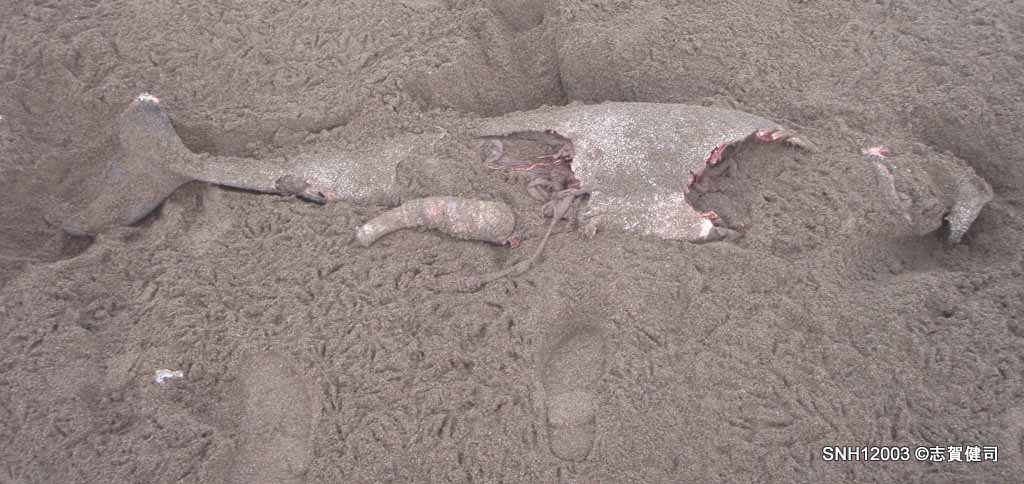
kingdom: Animalia
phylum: Chordata
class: Mammalia
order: Cetacea
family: Phocoenidae
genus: Phocoena
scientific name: Phocoena phocoena
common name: Harbour porpoise
